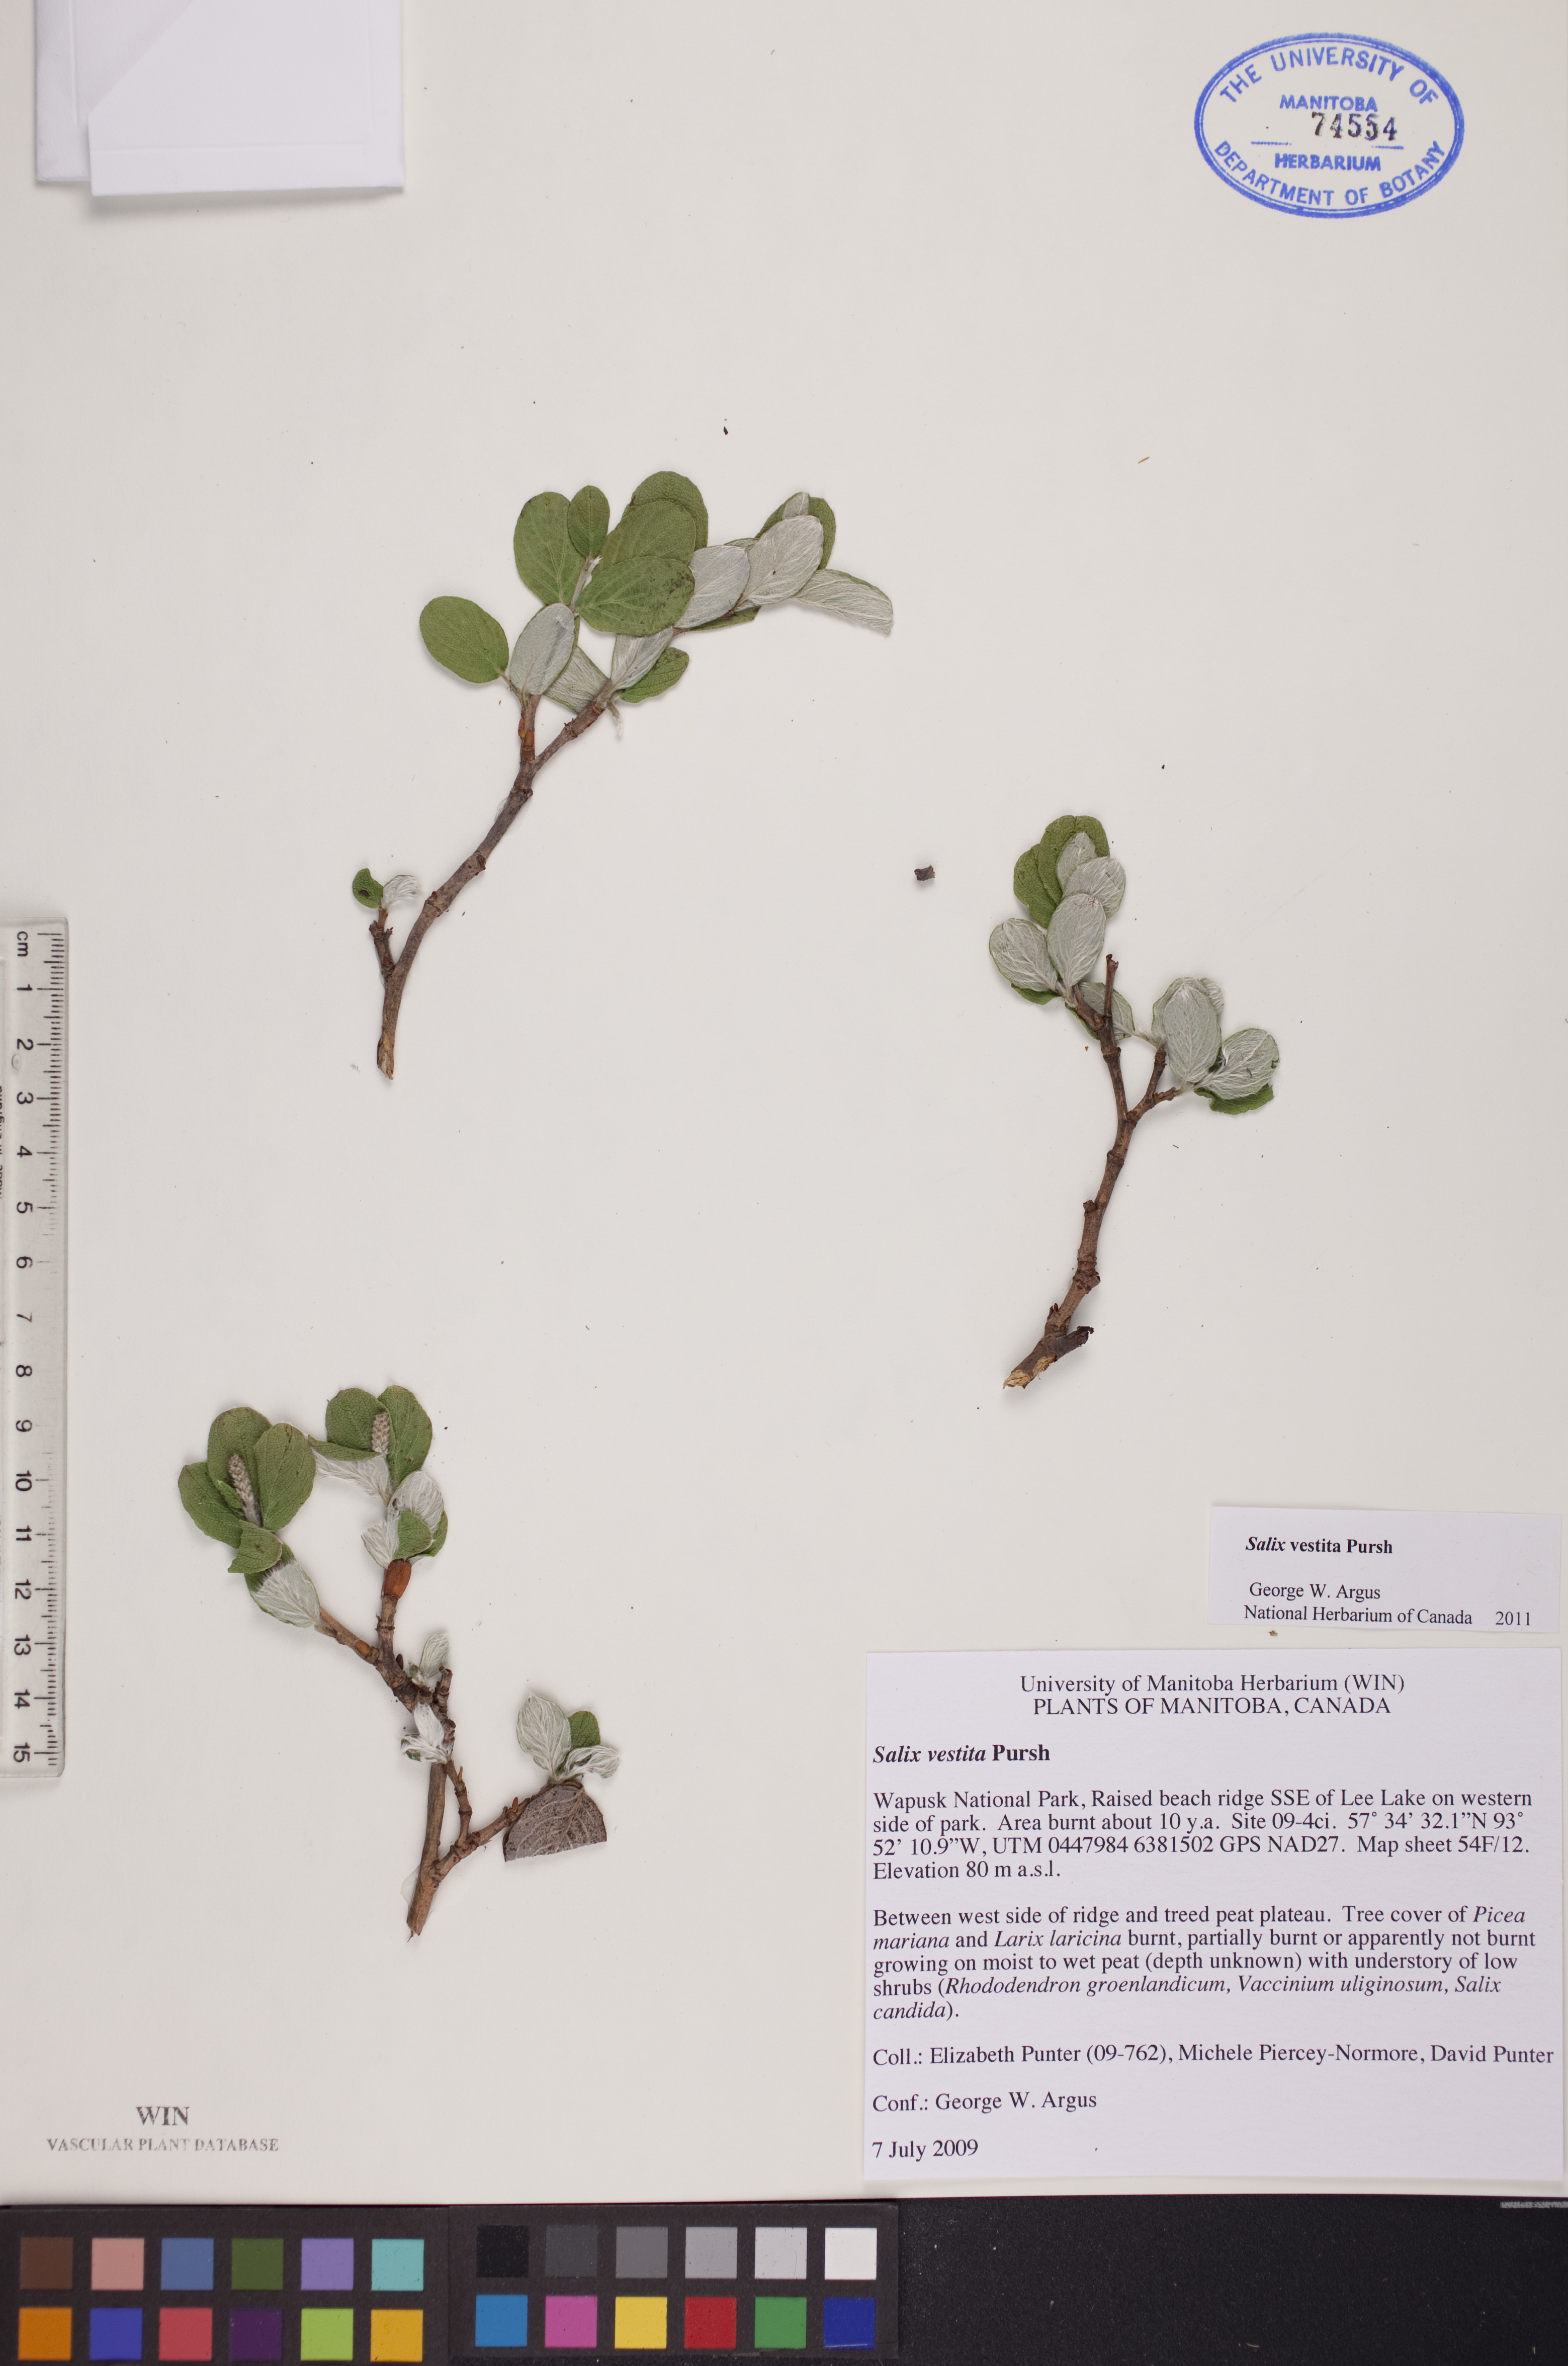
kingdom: Plantae
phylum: Tracheophyta
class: Magnoliopsida
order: Malpighiales
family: Salicaceae
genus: Salix
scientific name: Salix vestita
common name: Hairy willow
